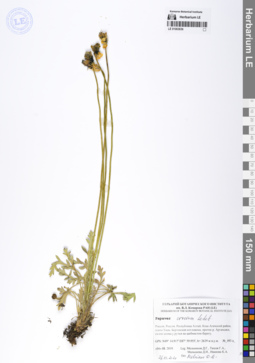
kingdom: Plantae
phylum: Tracheophyta
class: Magnoliopsida
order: Ranunculales
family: Papaveraceae
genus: Papaver
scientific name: Papaver croceum
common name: Siberian poppy
